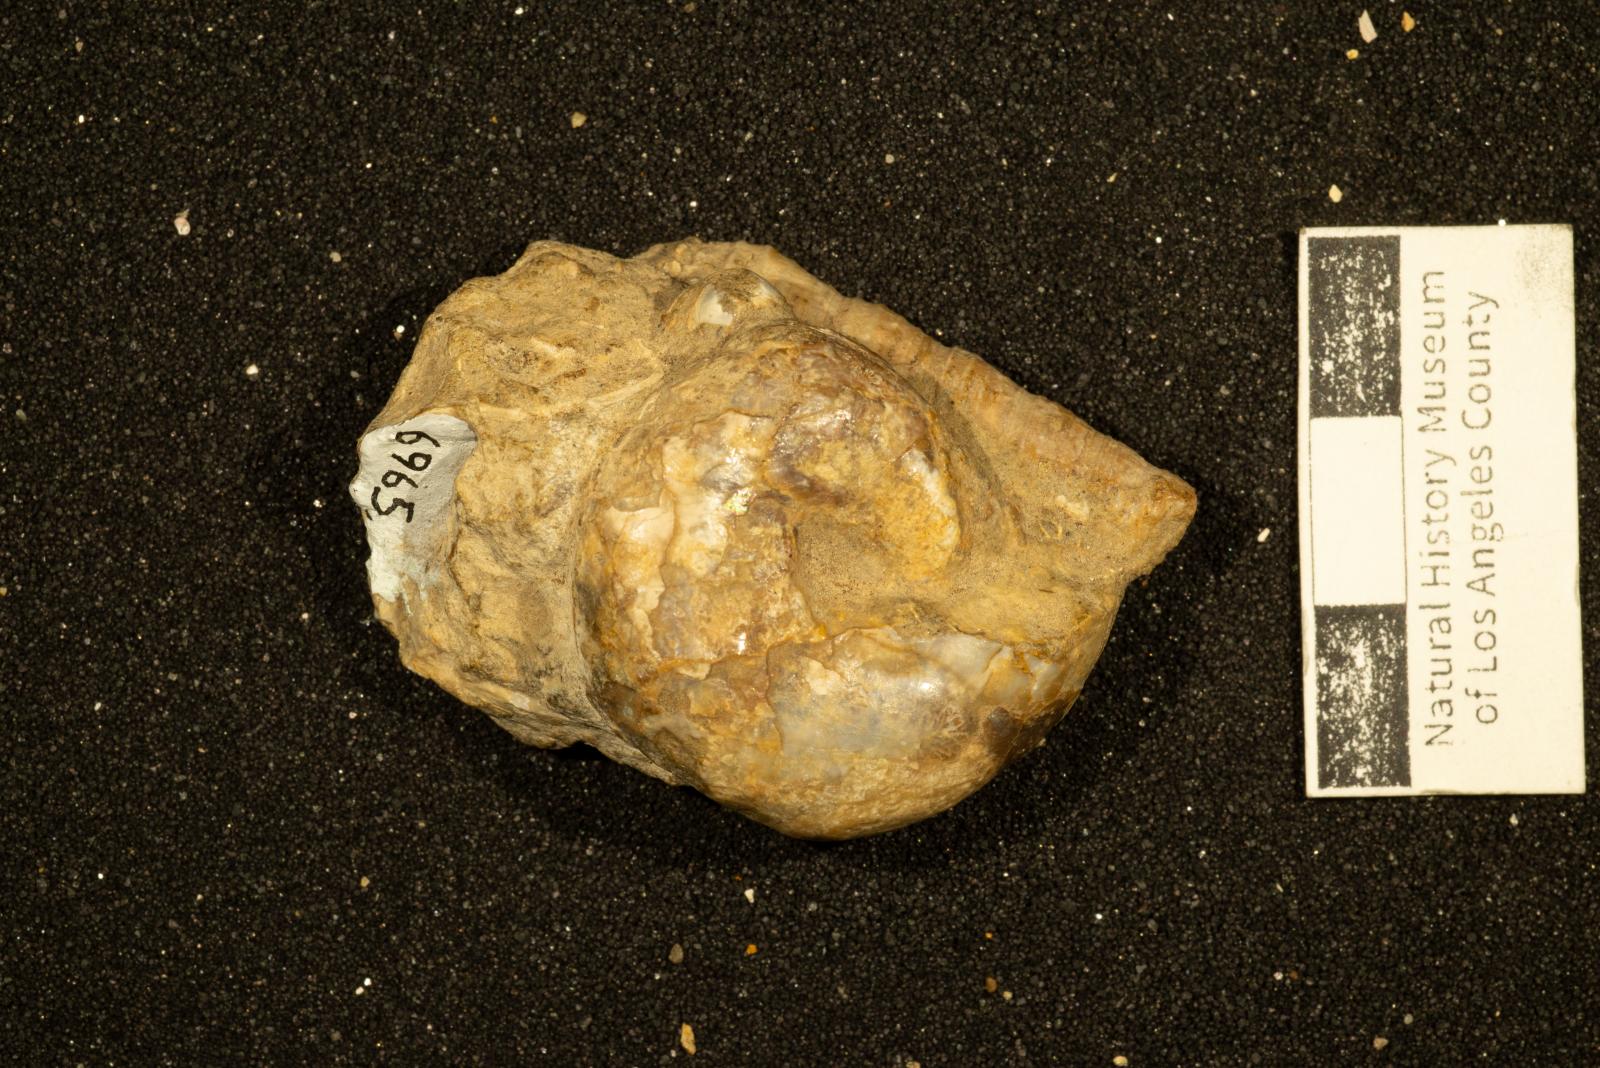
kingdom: Animalia
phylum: Mollusca
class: Cephalopoda
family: Desmoceratidae
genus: Desmophyllites
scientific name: Desmophyllites diphylloides
